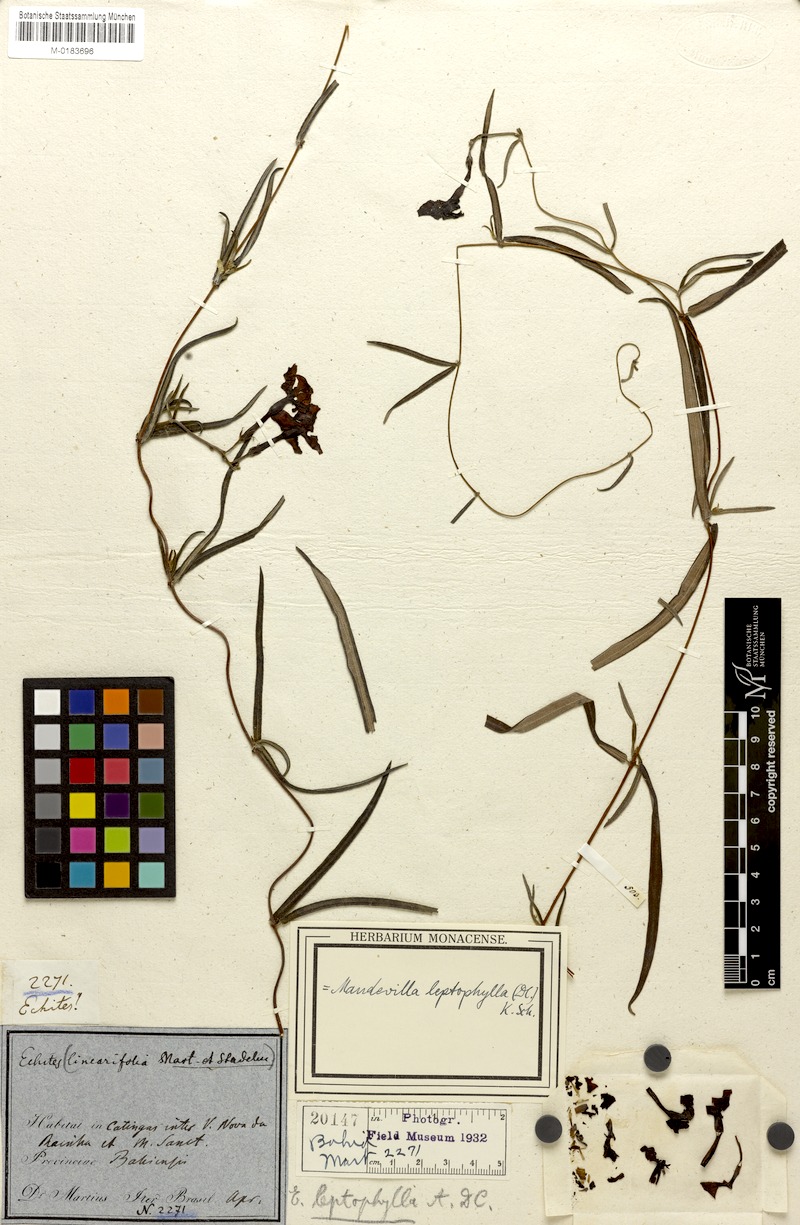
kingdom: Plantae
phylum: Tracheophyta
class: Magnoliopsida
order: Gentianales
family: Apocynaceae
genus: Mandevilla
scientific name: Mandevilla leptophylla
